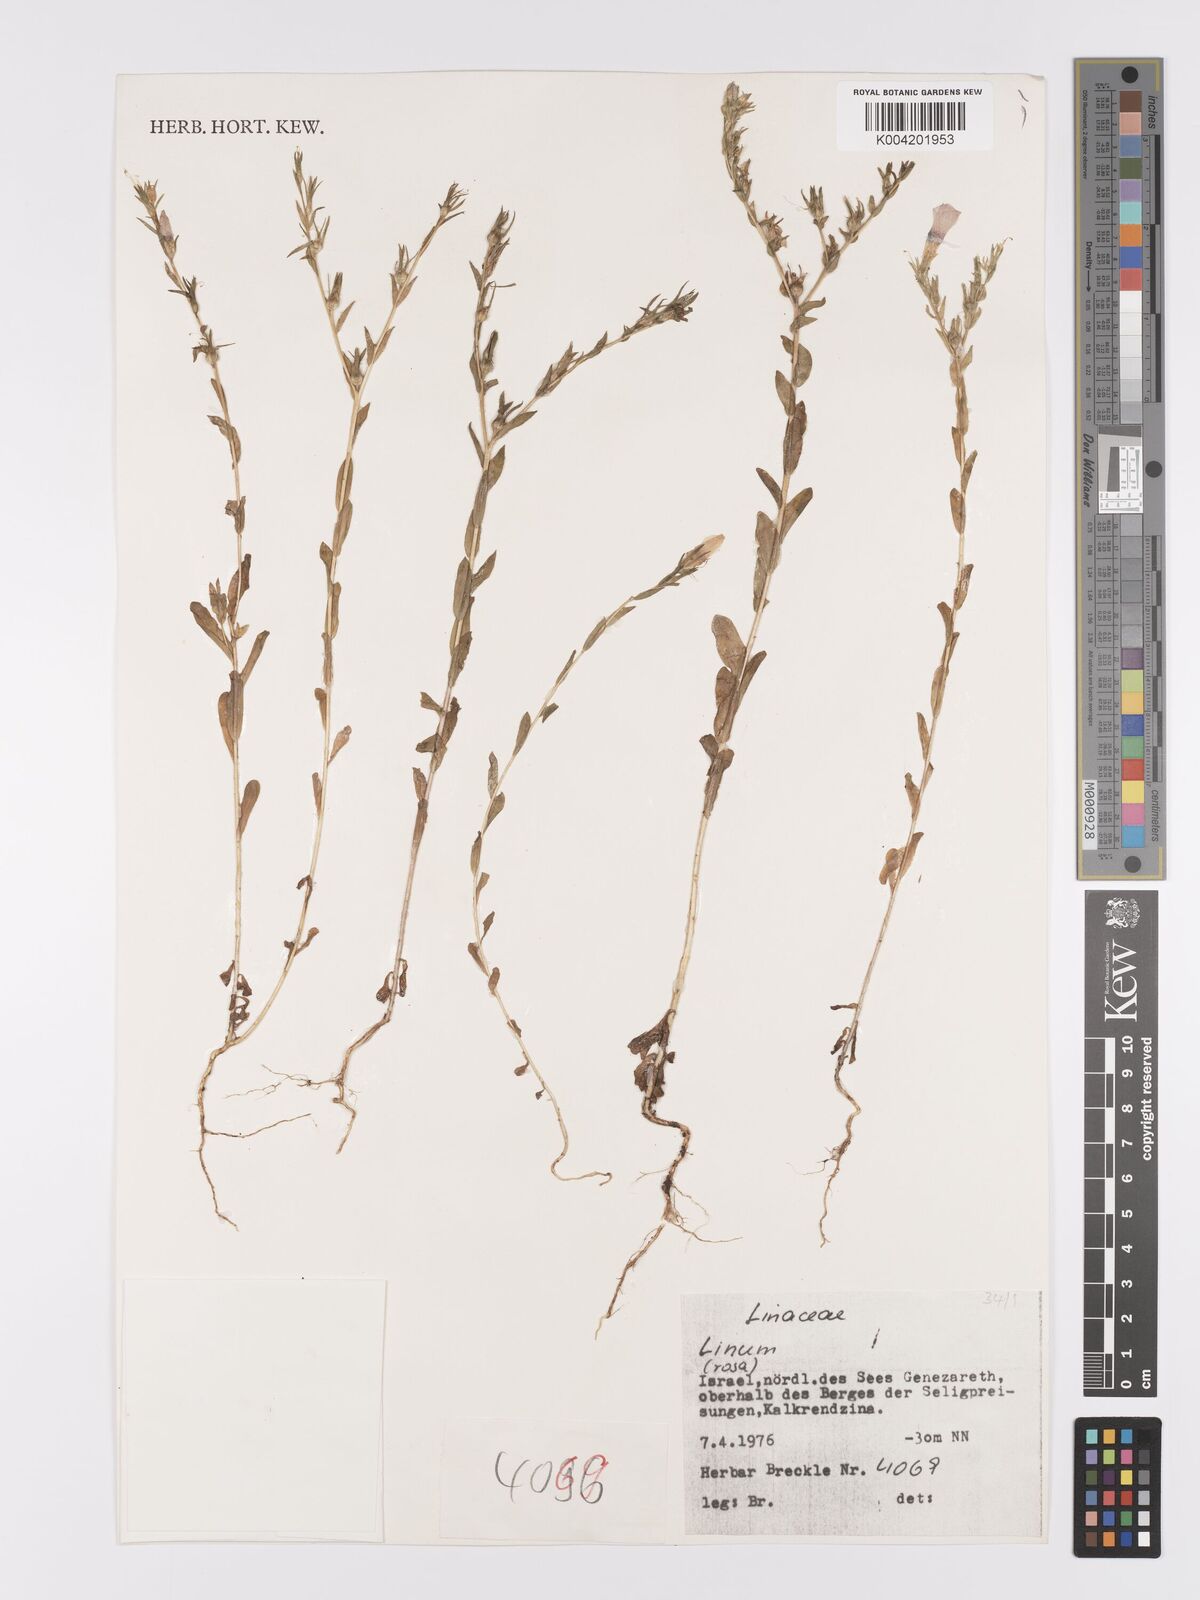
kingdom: Plantae
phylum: Tracheophyta
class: Magnoliopsida
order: Malpighiales
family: Linaceae
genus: Linum
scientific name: Linum
